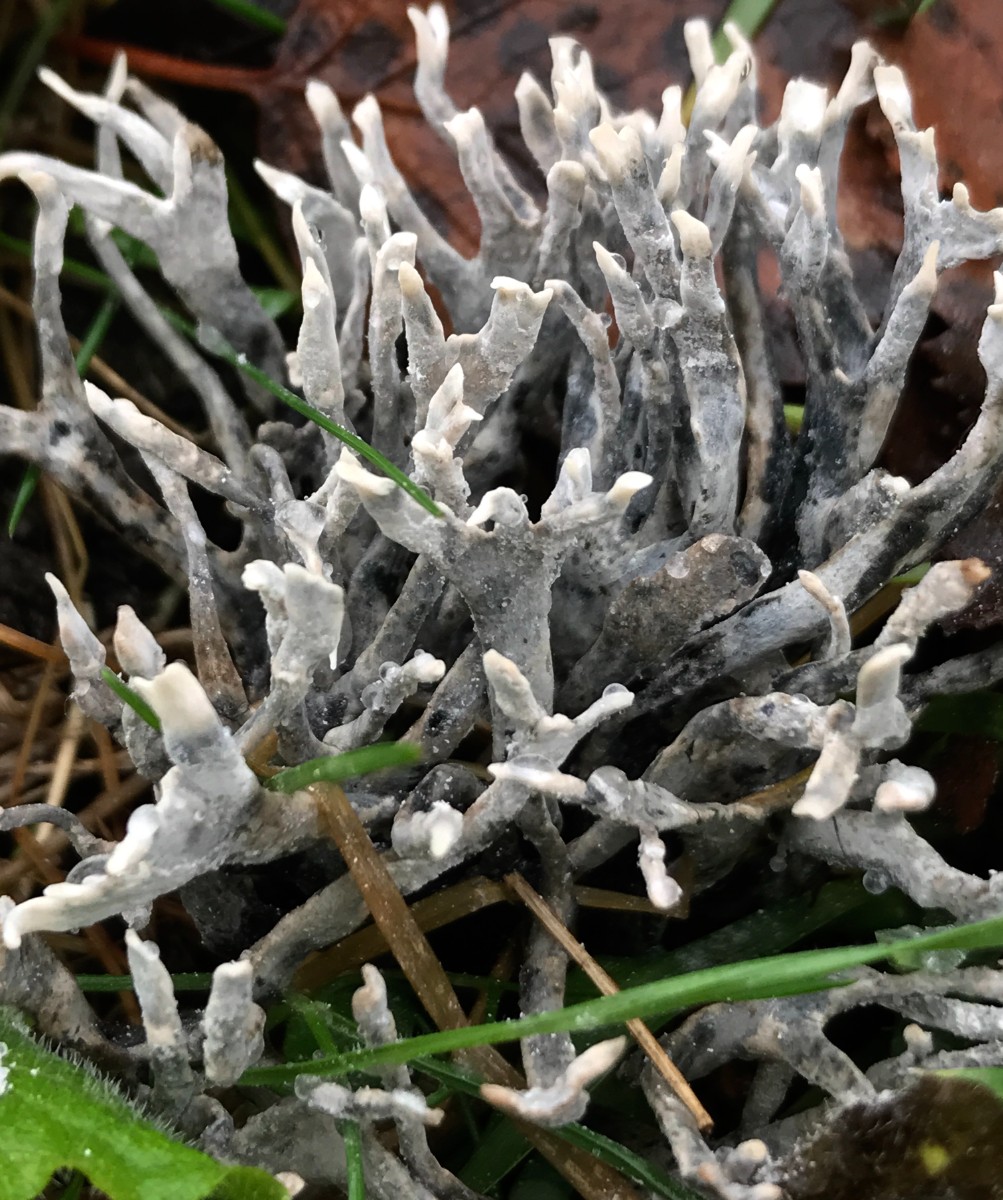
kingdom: Fungi
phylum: Ascomycota
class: Sordariomycetes
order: Xylariales
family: Xylariaceae
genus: Xylaria
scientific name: Xylaria hypoxylon
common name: grenet stødsvamp
